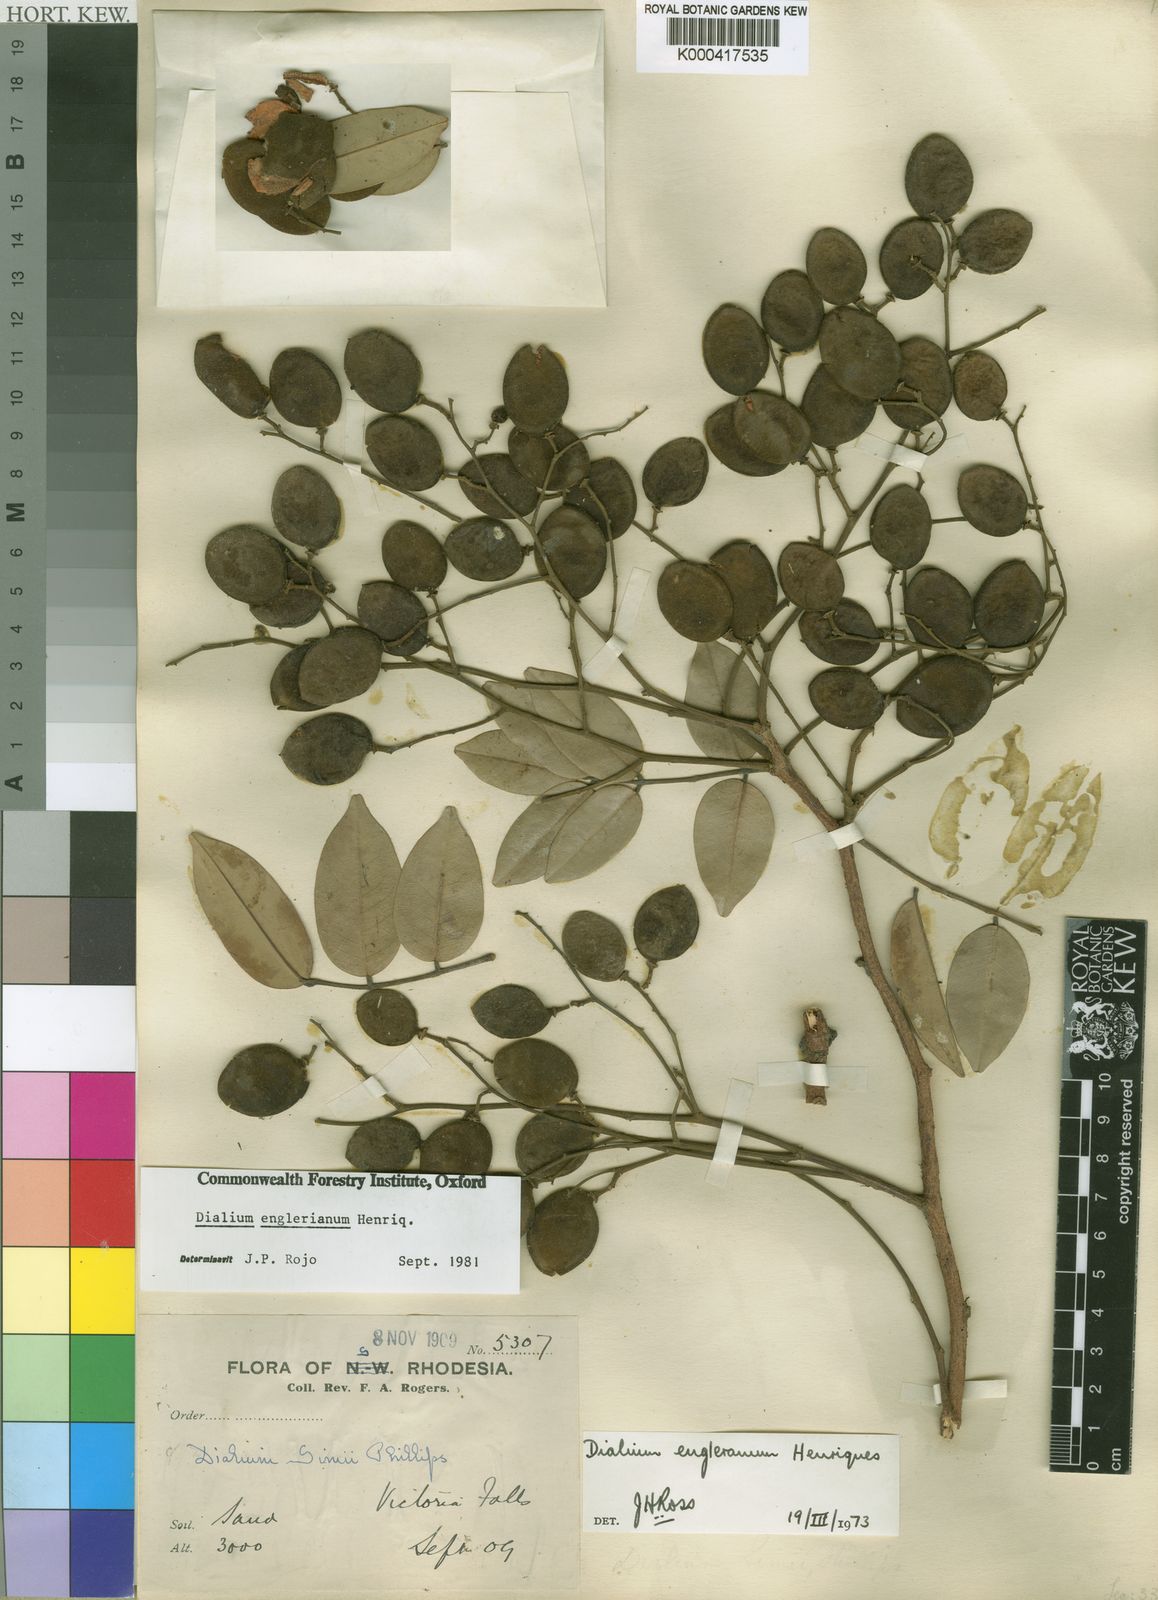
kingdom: Plantae
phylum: Tracheophyta
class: Magnoliopsida
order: Fabales
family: Fabaceae
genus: Dialium
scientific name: Dialium
